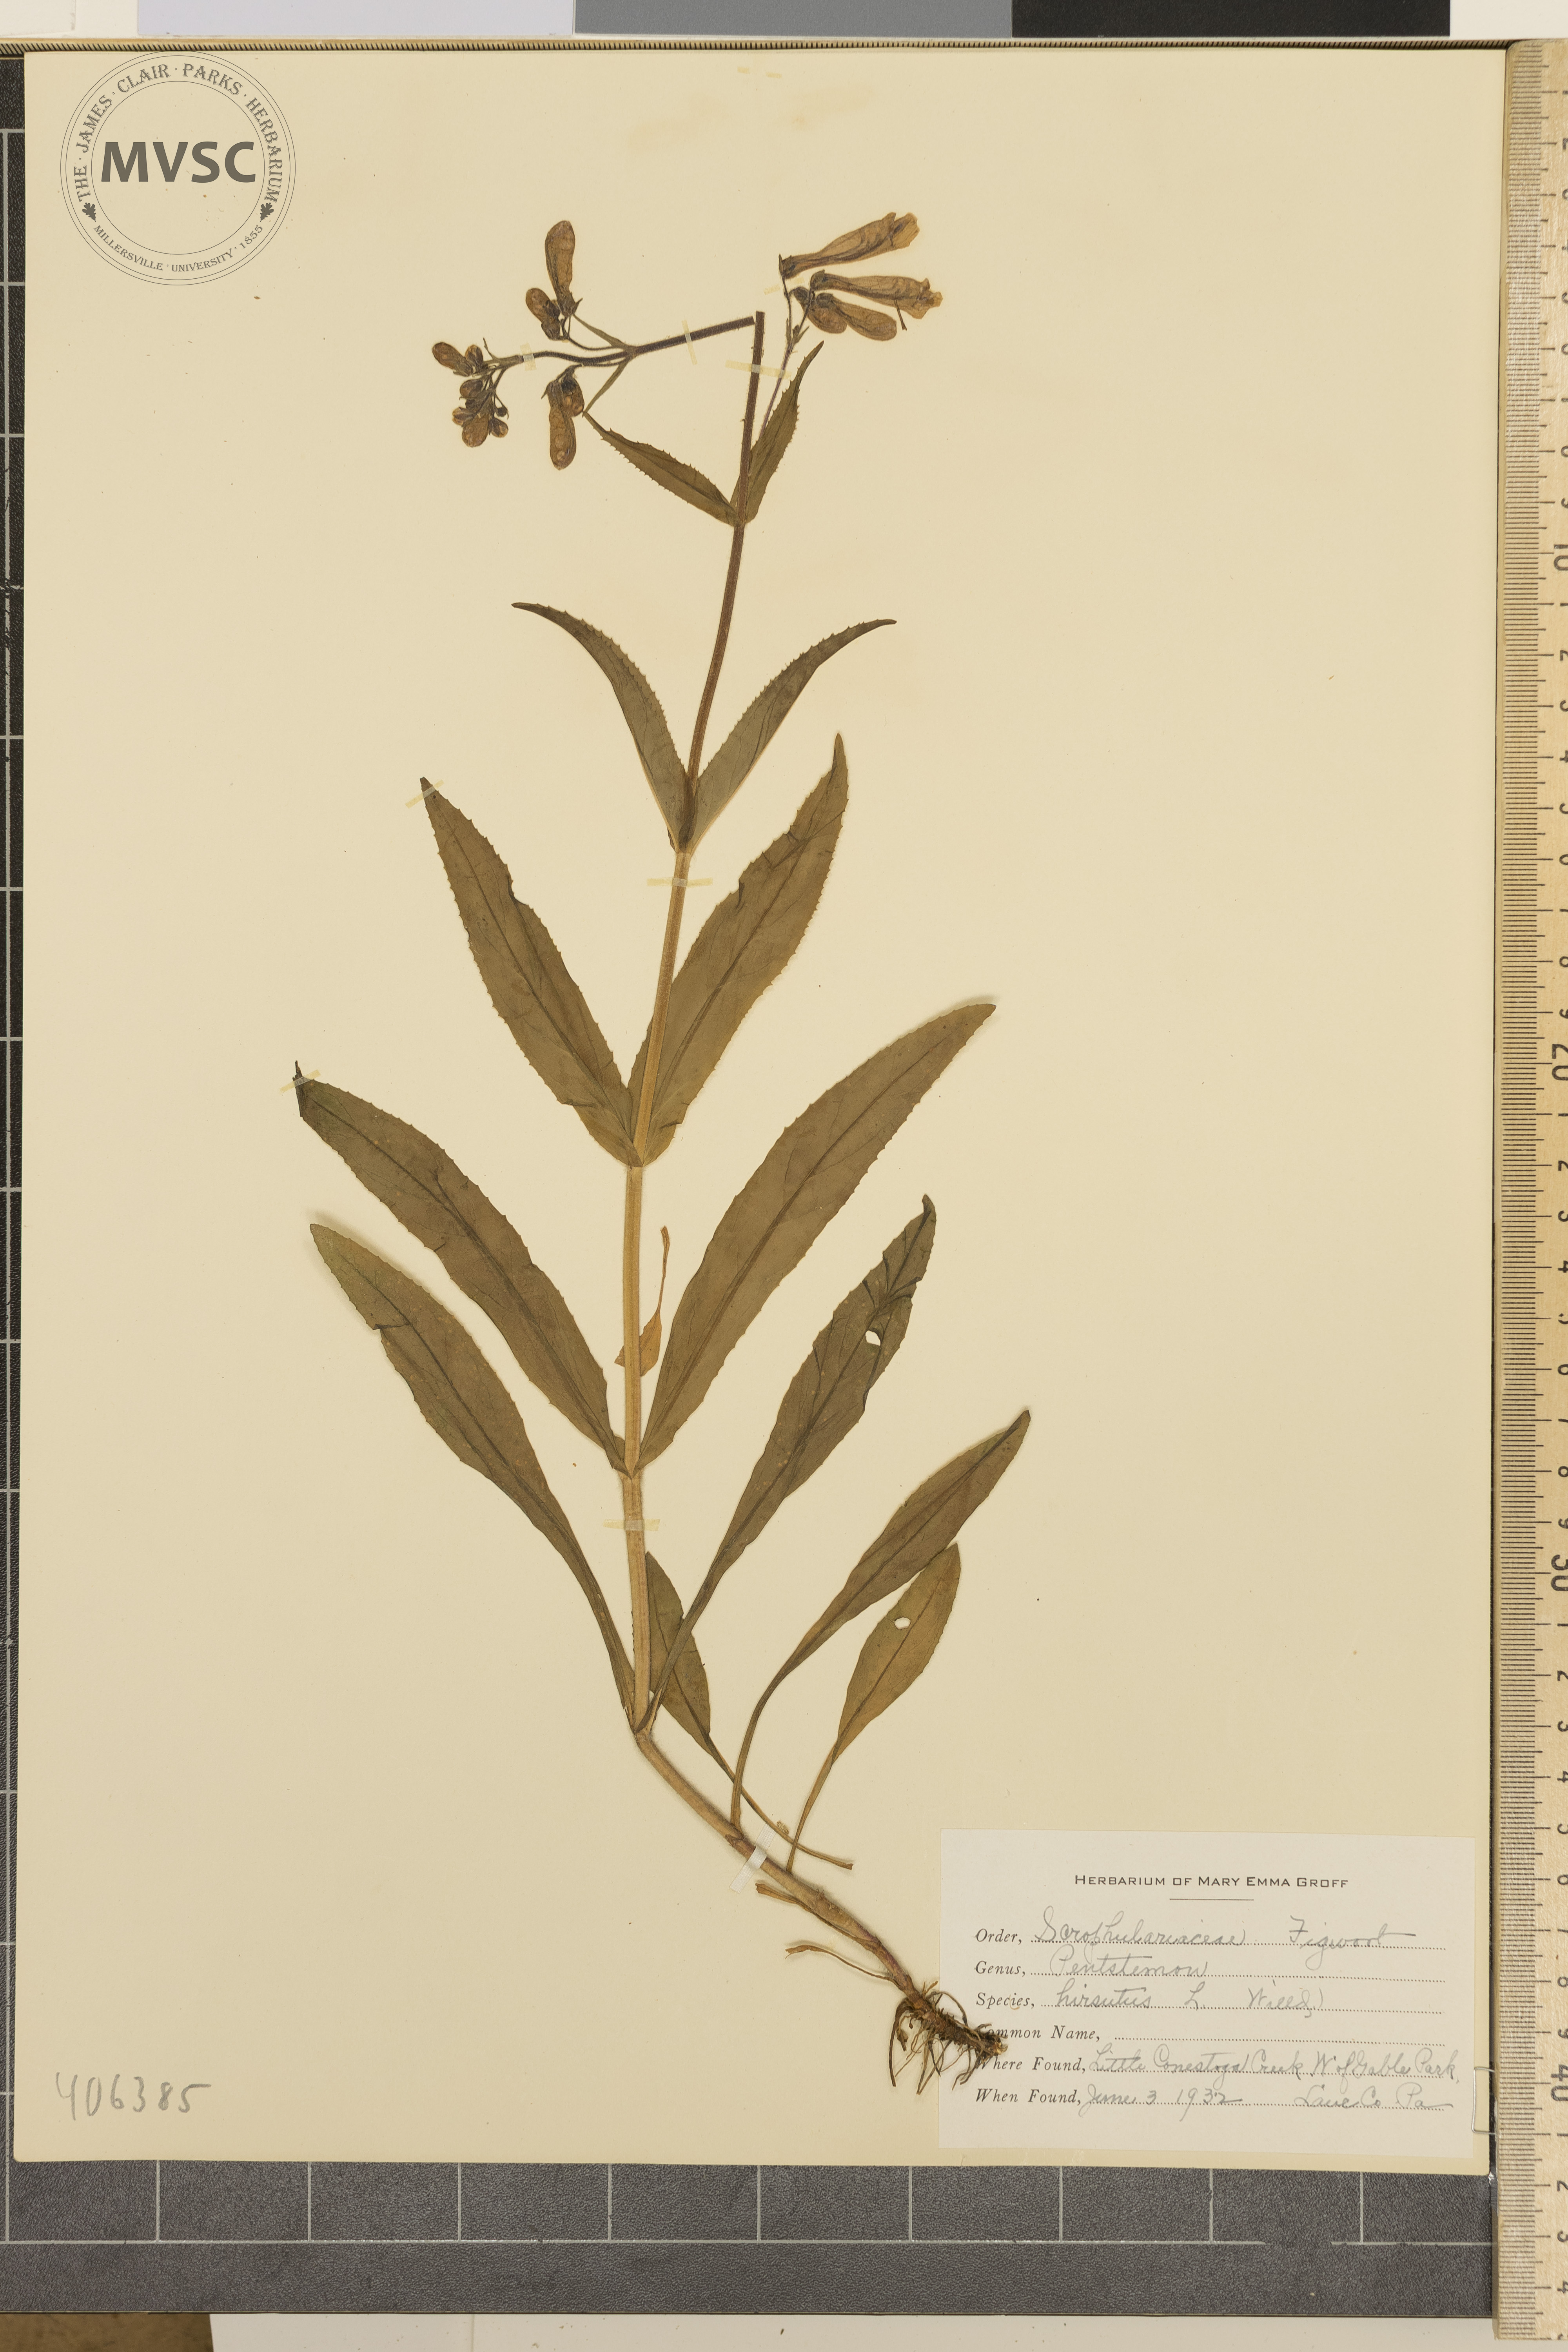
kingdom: Plantae
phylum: Tracheophyta
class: Magnoliopsida
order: Lamiales
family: Plantaginaceae
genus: Penstemon
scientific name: Penstemon hirsutus
